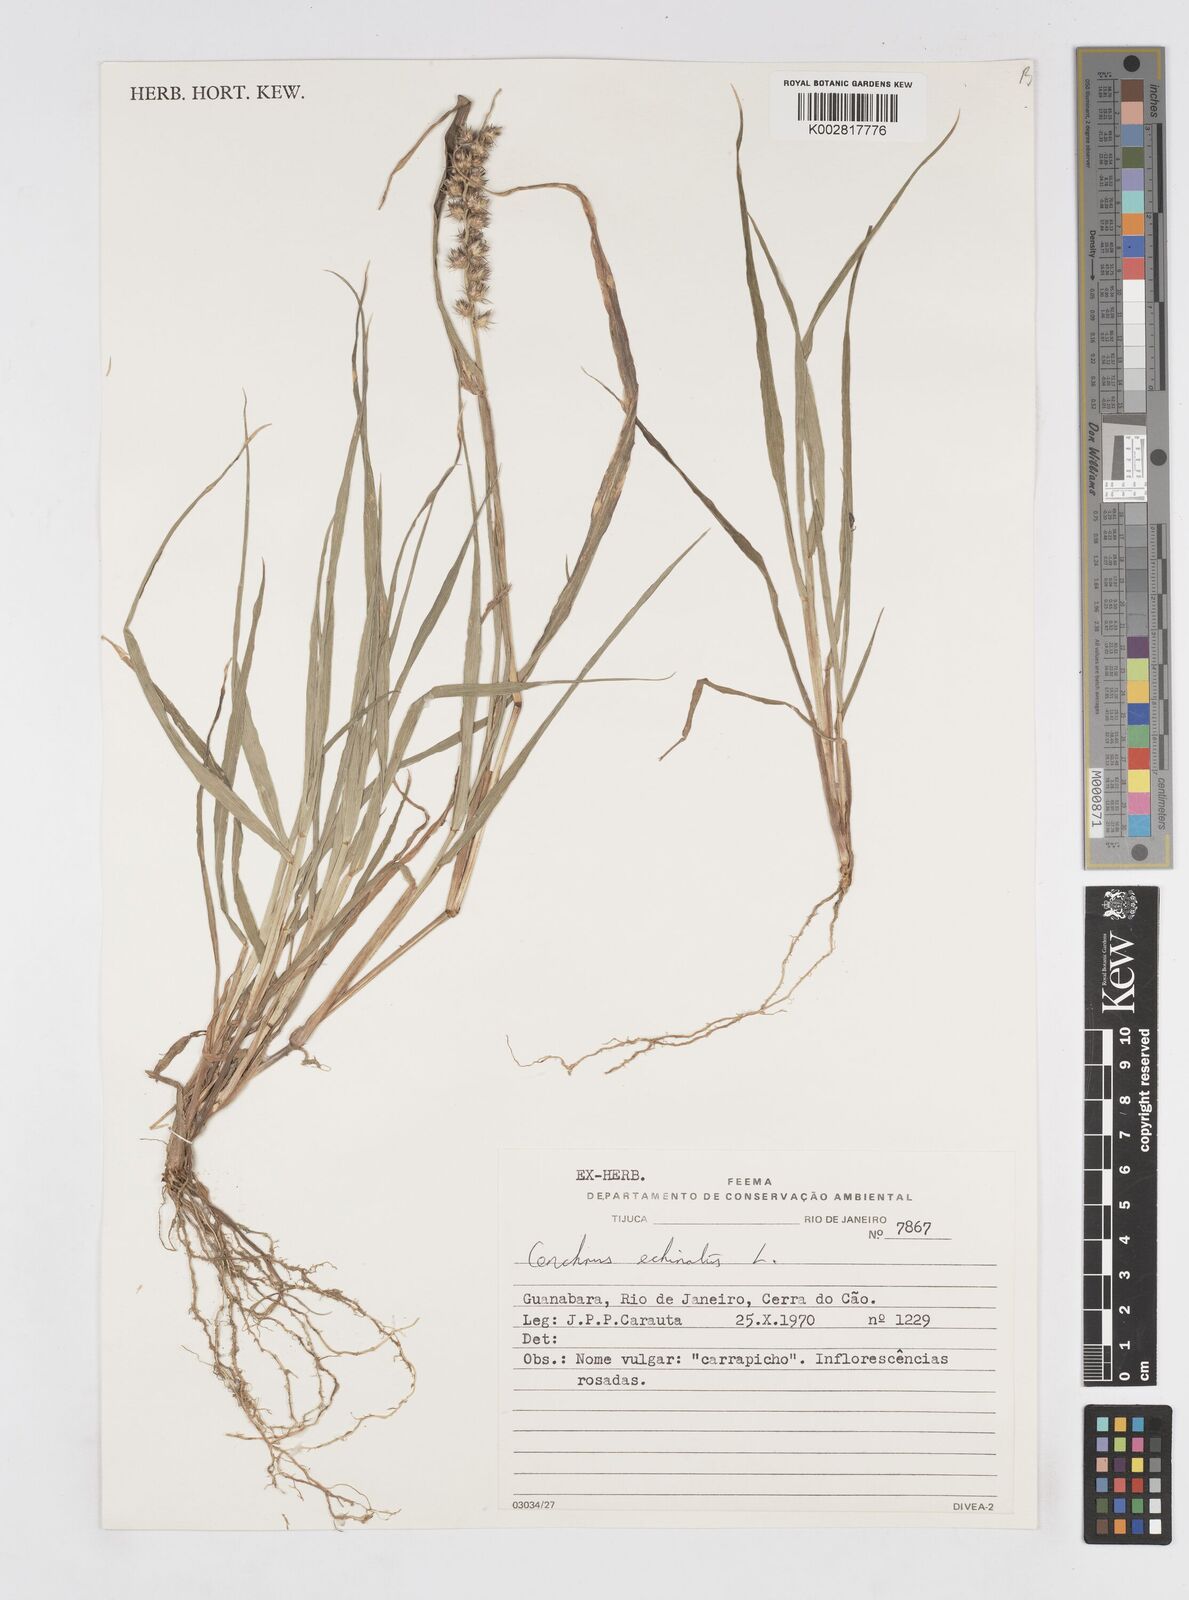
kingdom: Plantae
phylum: Tracheophyta
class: Liliopsida
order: Poales
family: Poaceae
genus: Cenchrus
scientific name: Cenchrus
